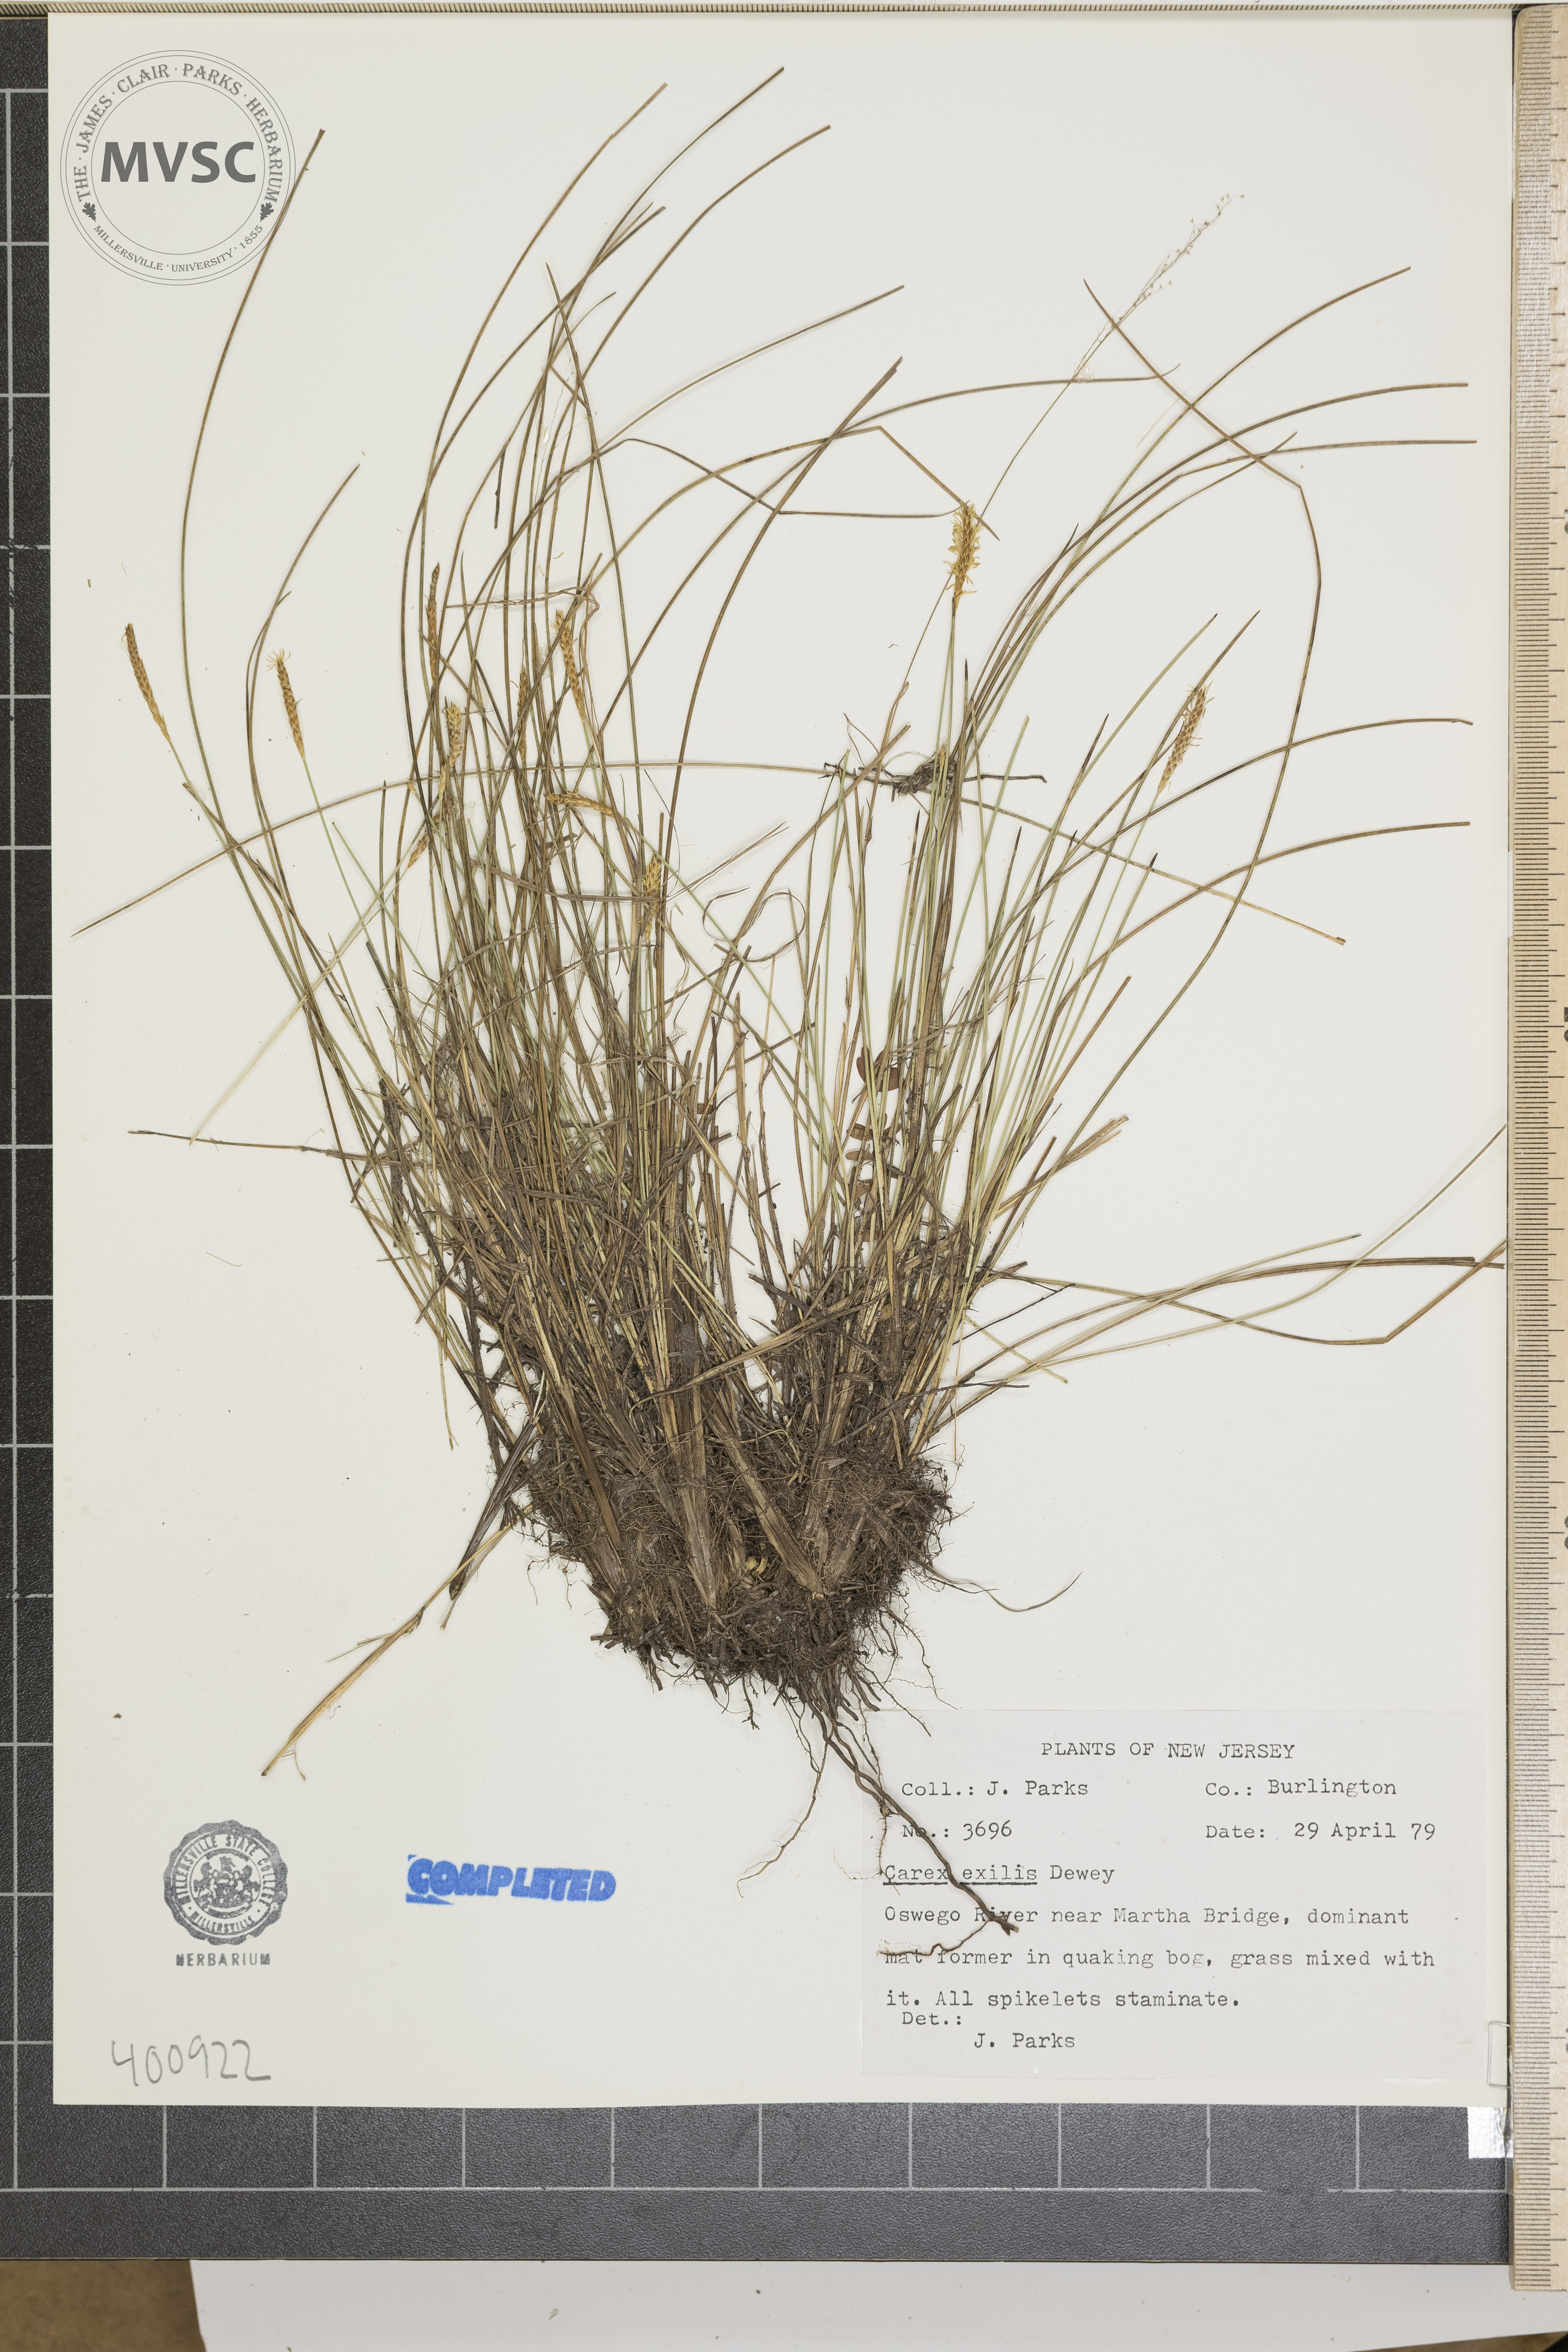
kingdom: Plantae
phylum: Tracheophyta
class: Liliopsida
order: Poales
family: Cyperaceae
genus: Carex
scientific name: Carex exilis
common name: sedge
